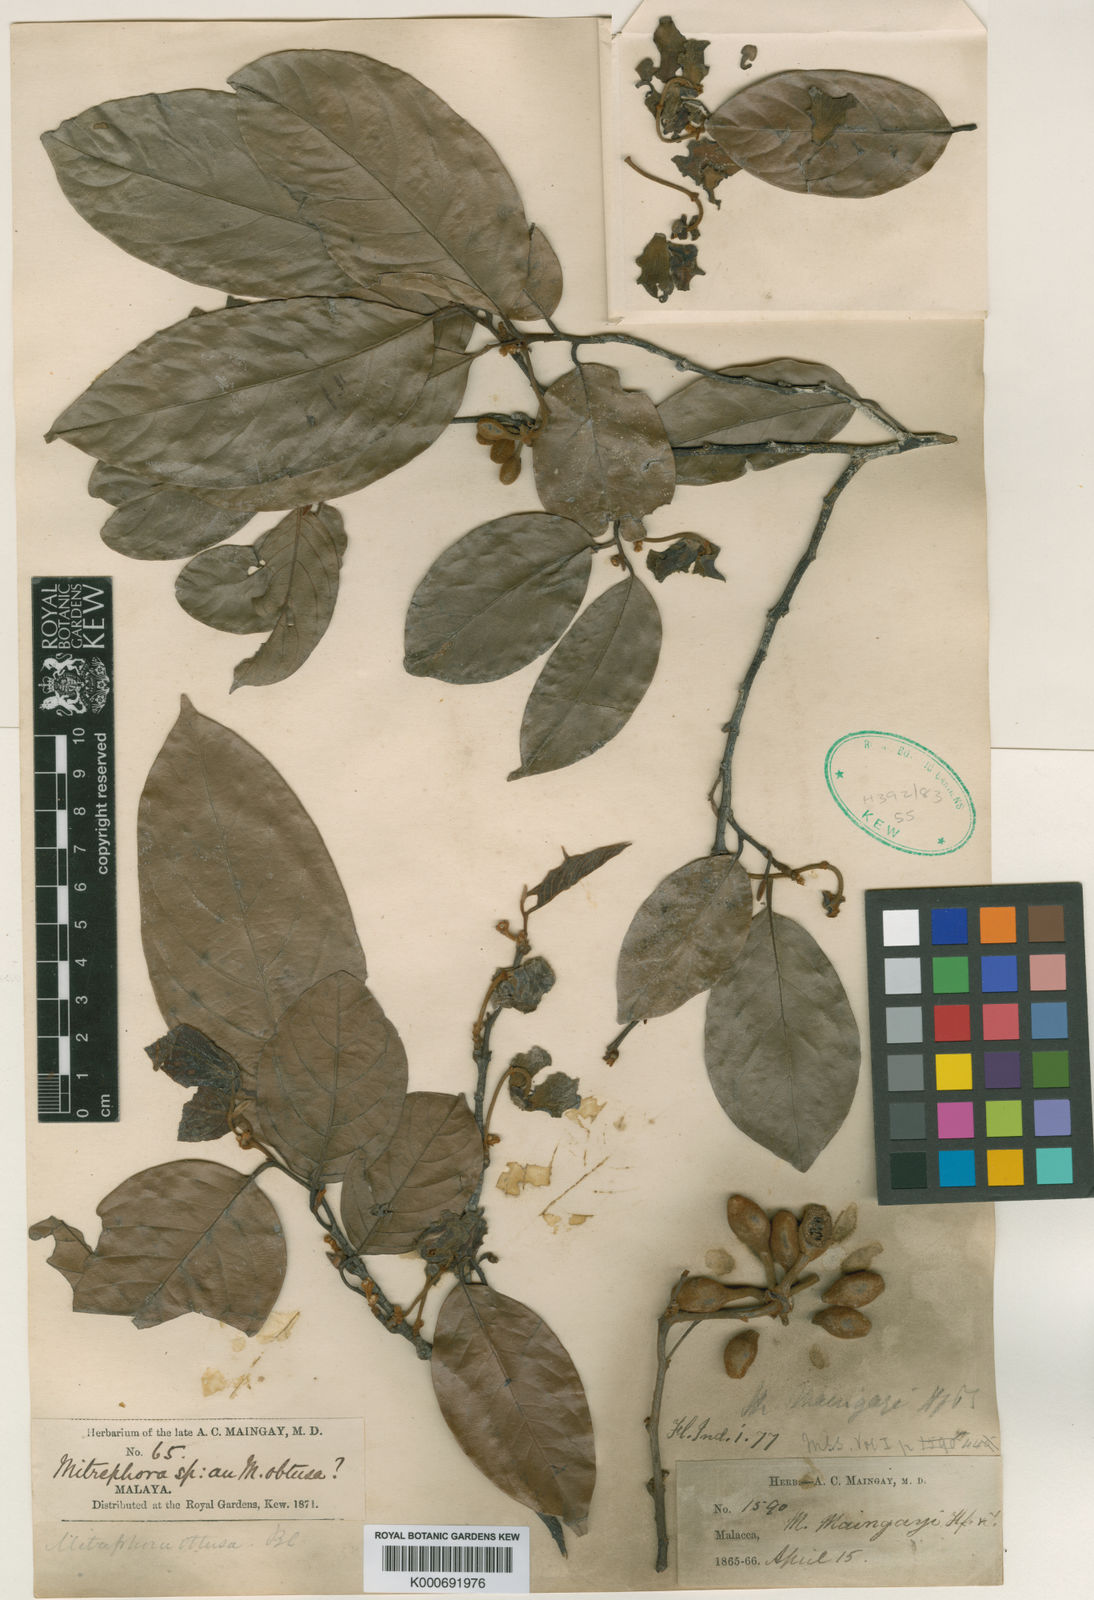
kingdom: Plantae
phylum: Tracheophyta
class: Magnoliopsida
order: Magnoliales
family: Annonaceae
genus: Mitrephora
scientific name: Mitrephora teysmannii
